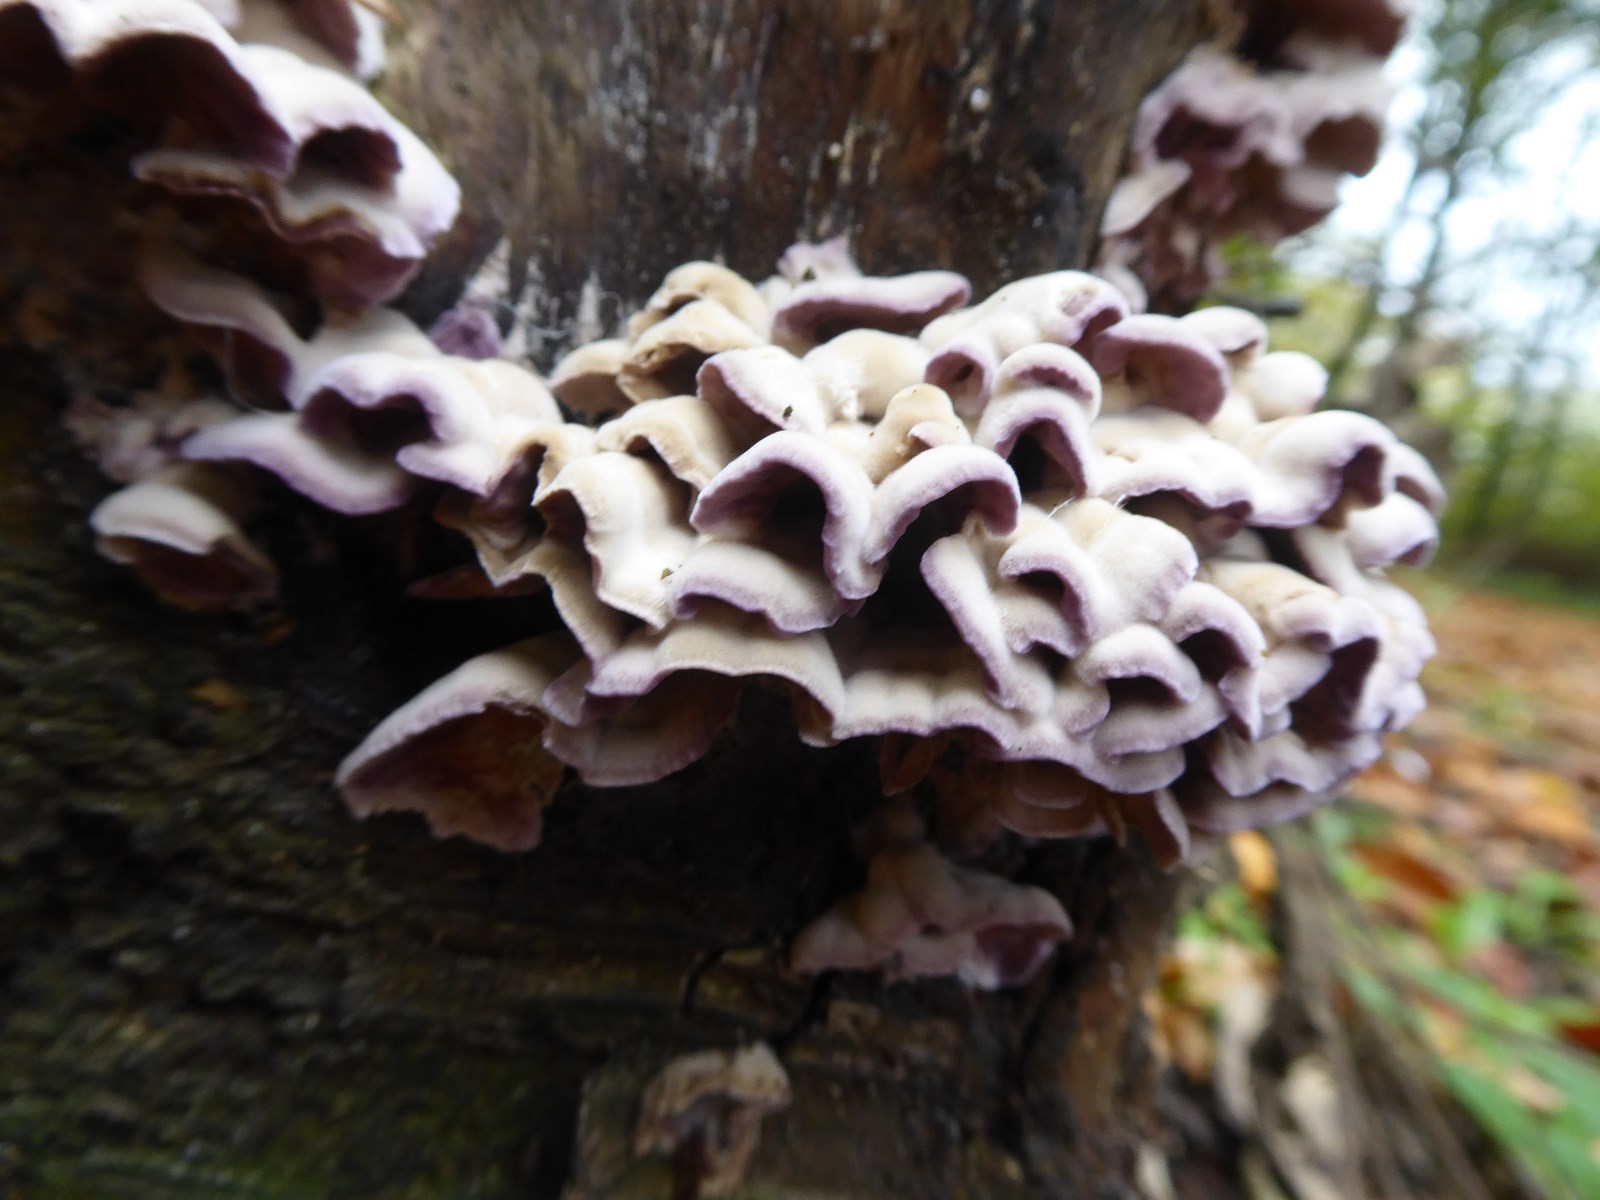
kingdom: Fungi
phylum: Basidiomycota
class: Agaricomycetes
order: Agaricales
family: Cyphellaceae
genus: Chondrostereum
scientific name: Chondrostereum purpureum
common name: purpurlædersvamp
